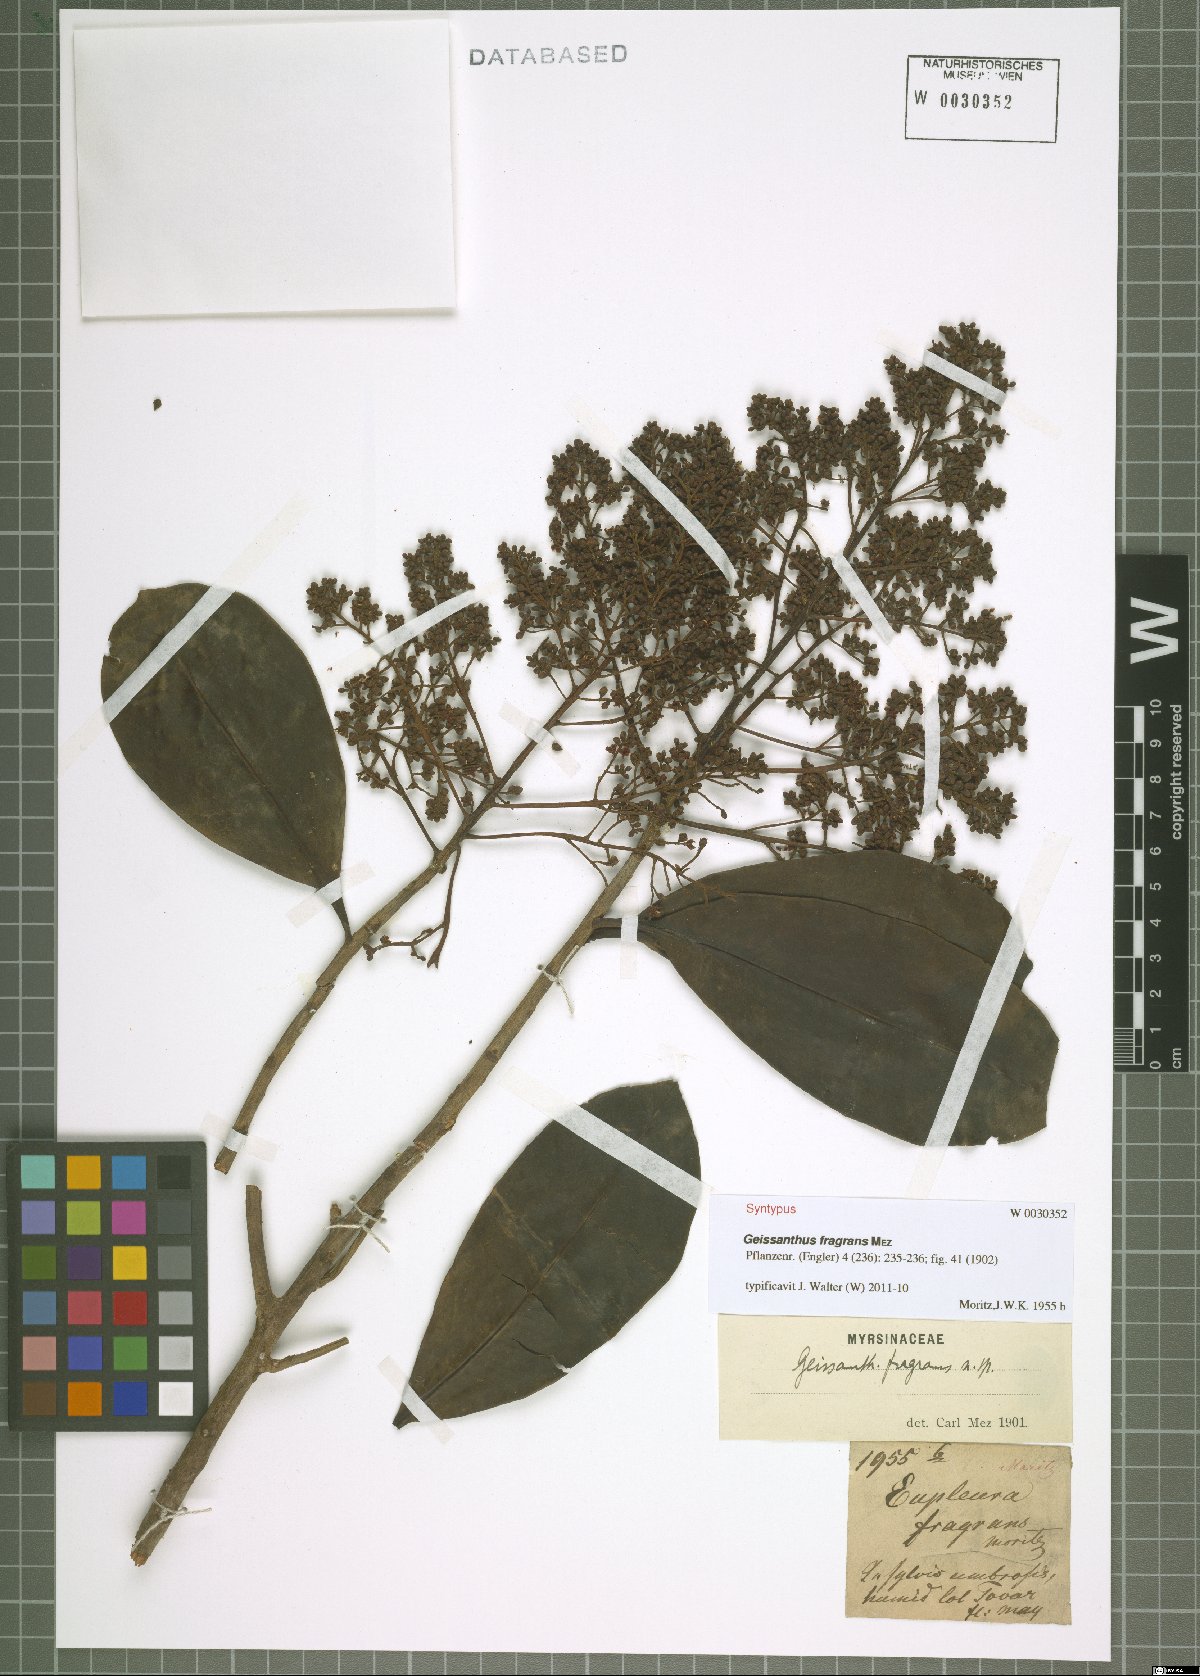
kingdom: Plantae
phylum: Tracheophyta
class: Magnoliopsida
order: Ericales
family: Primulaceae
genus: Geissanthus
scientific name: Geissanthus fragrans
